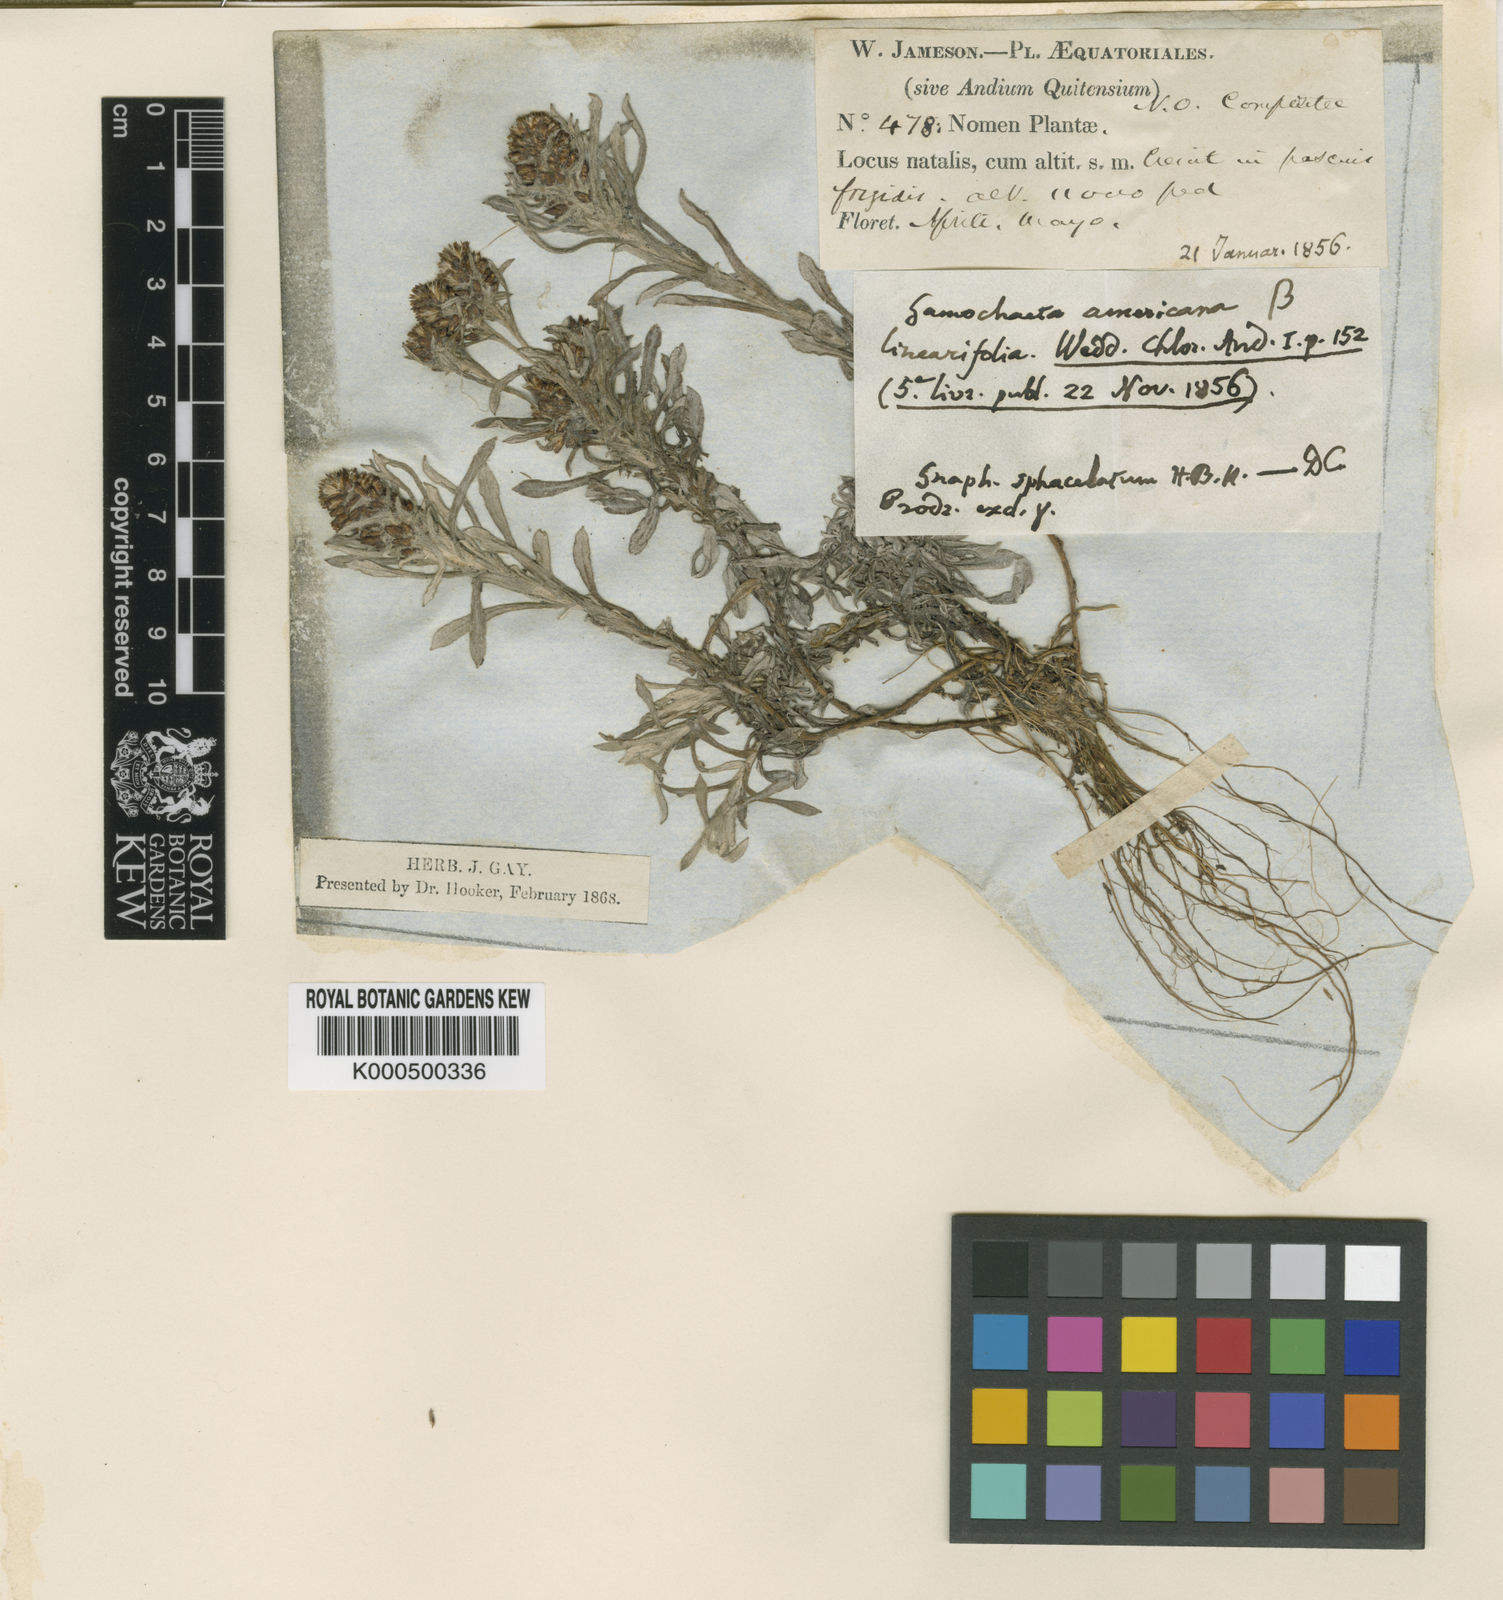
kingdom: Plantae
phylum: Tracheophyta
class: Magnoliopsida
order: Asterales
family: Asteraceae
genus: Gamochaeta
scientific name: Gamochaeta americana
